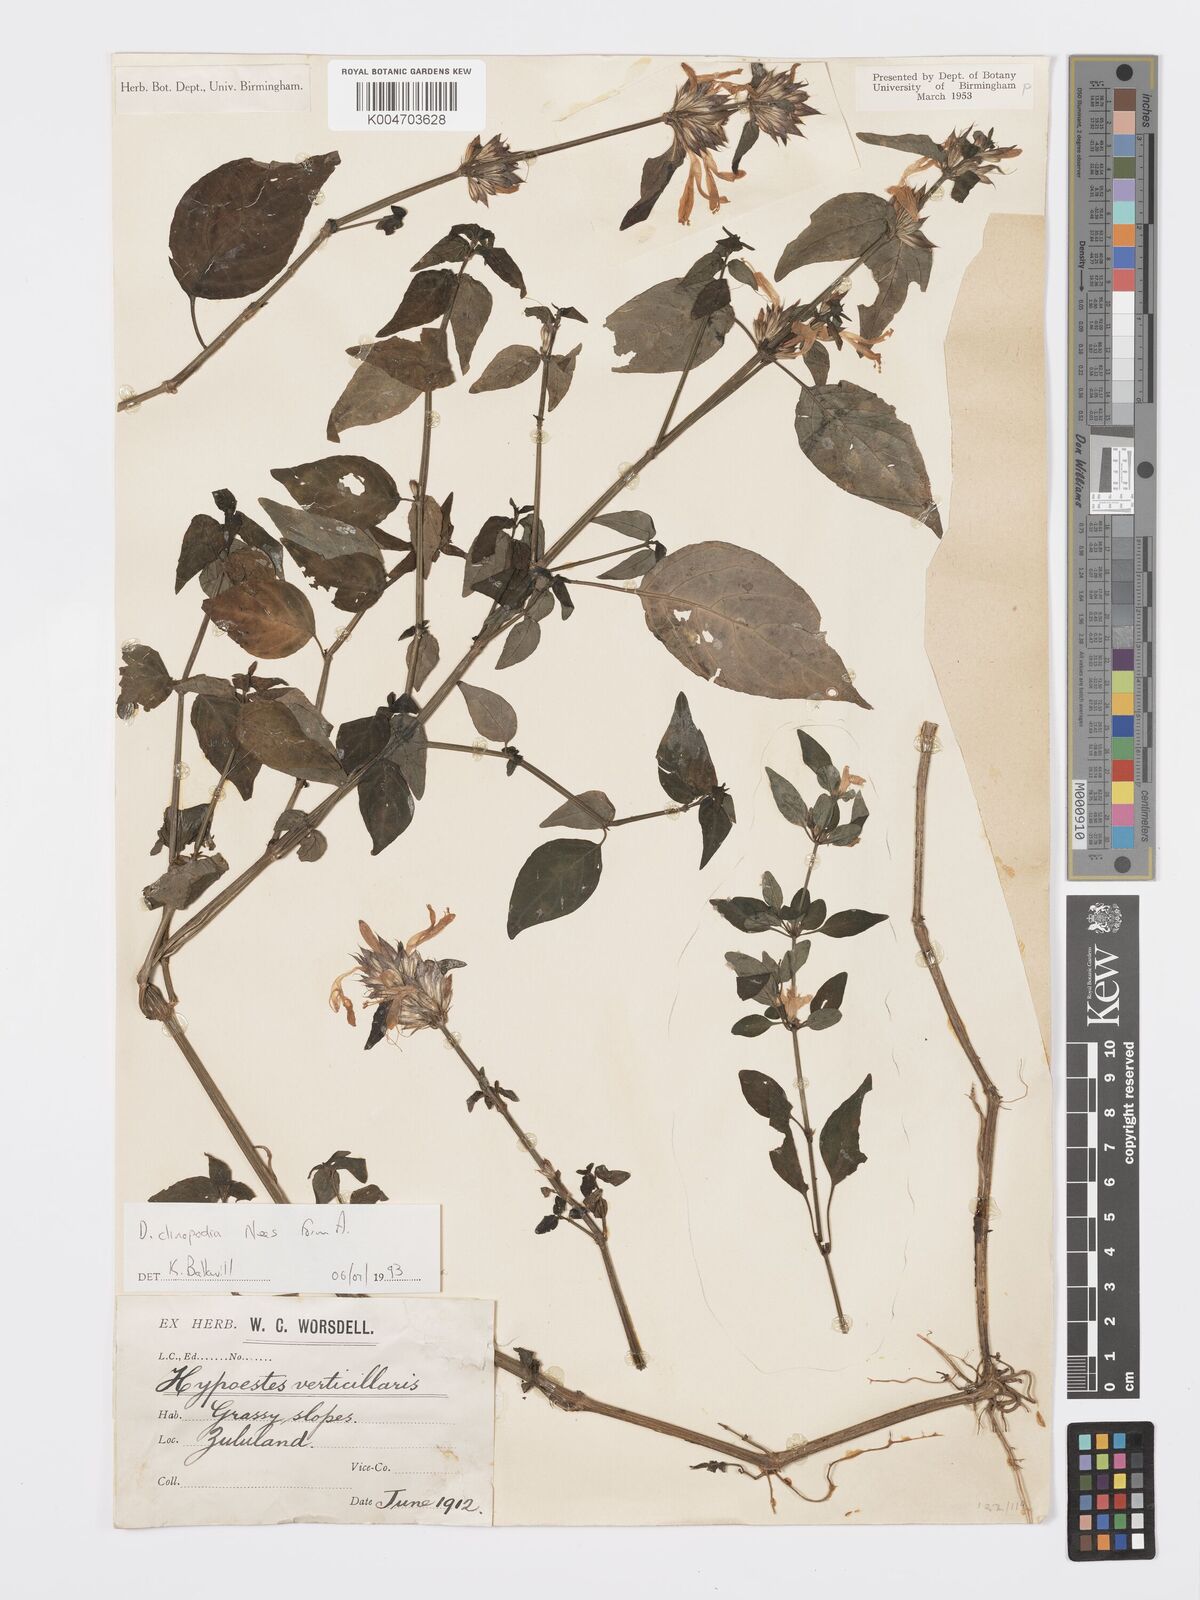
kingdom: Plantae
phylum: Tracheophyta
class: Magnoliopsida
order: Lamiales
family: Acanthaceae
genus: Dicliptera
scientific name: Dicliptera clinopodia
